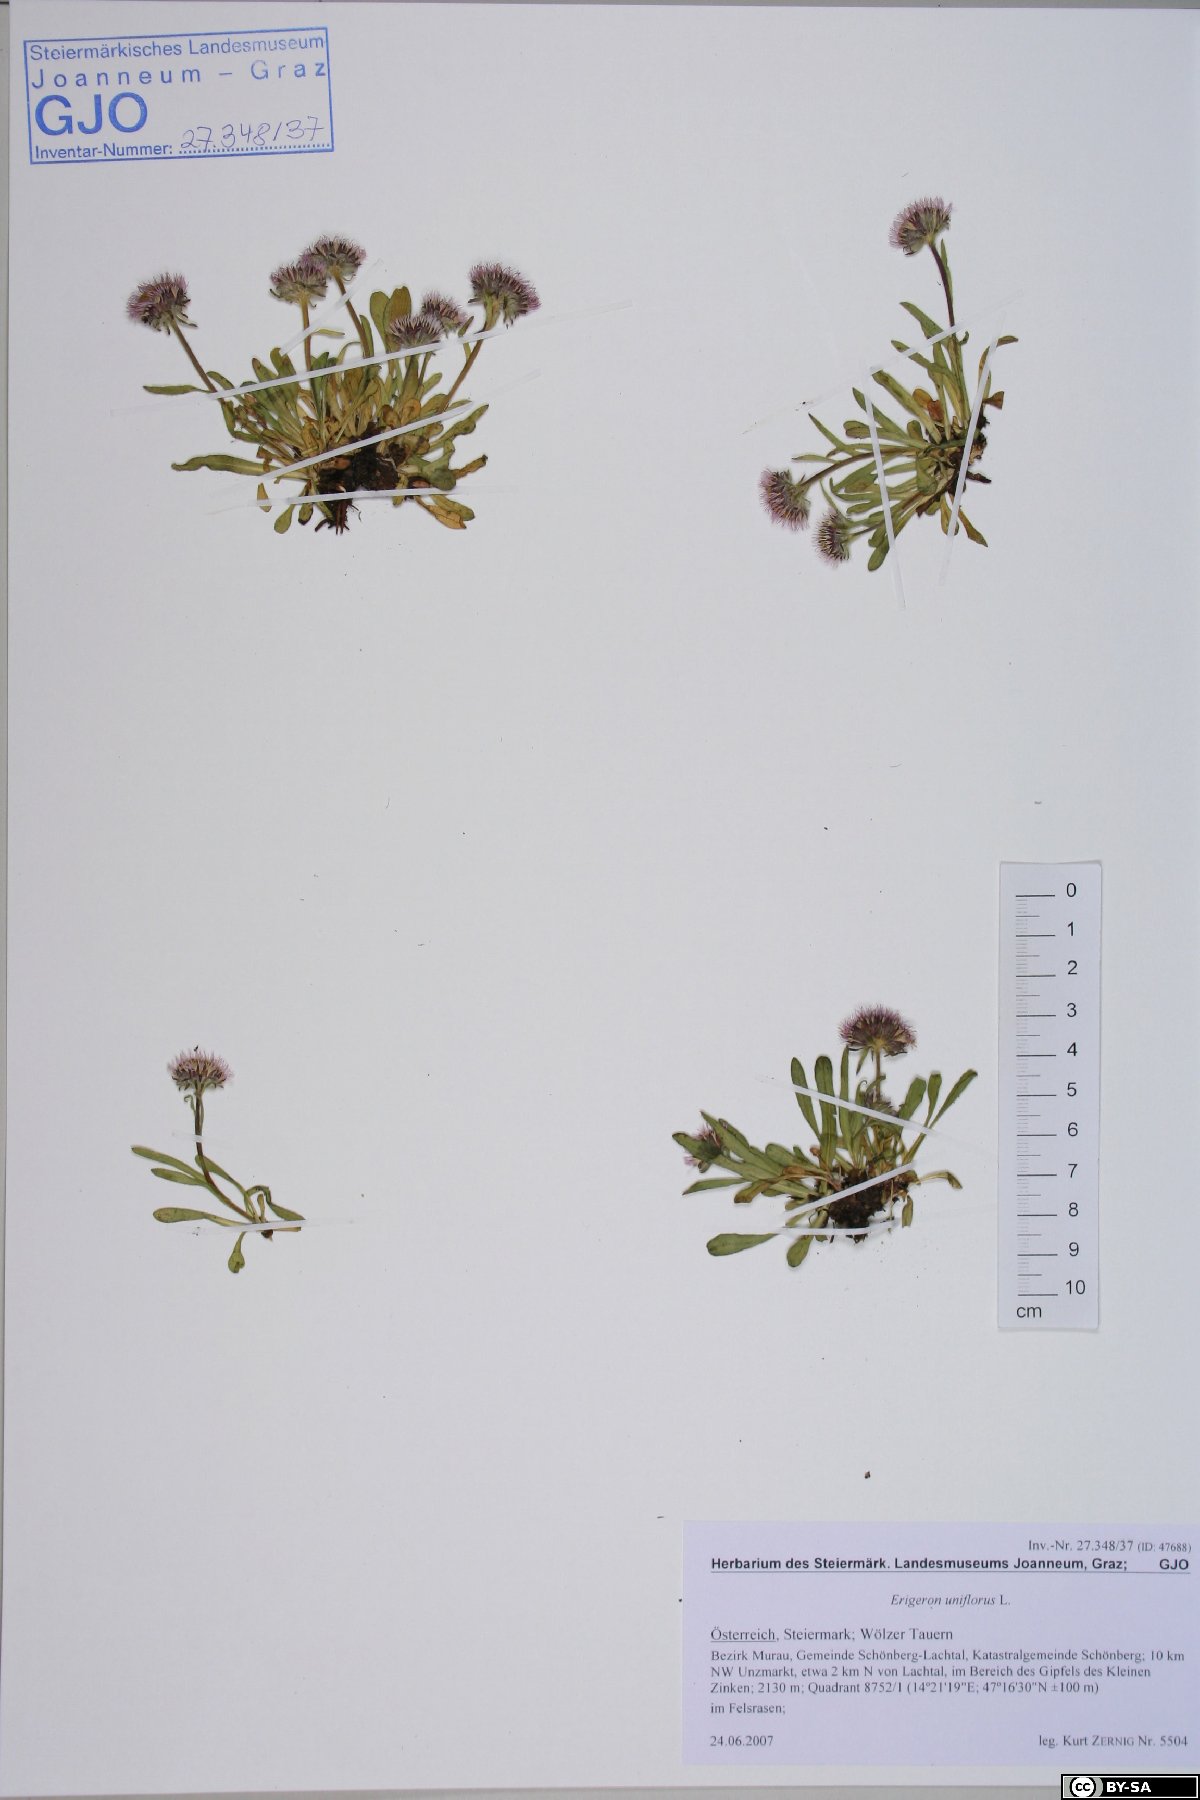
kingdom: Plantae
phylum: Tracheophyta
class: Magnoliopsida
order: Asterales
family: Asteraceae
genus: Erigeron
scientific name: Erigeron uniflorus
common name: Northern daisy
